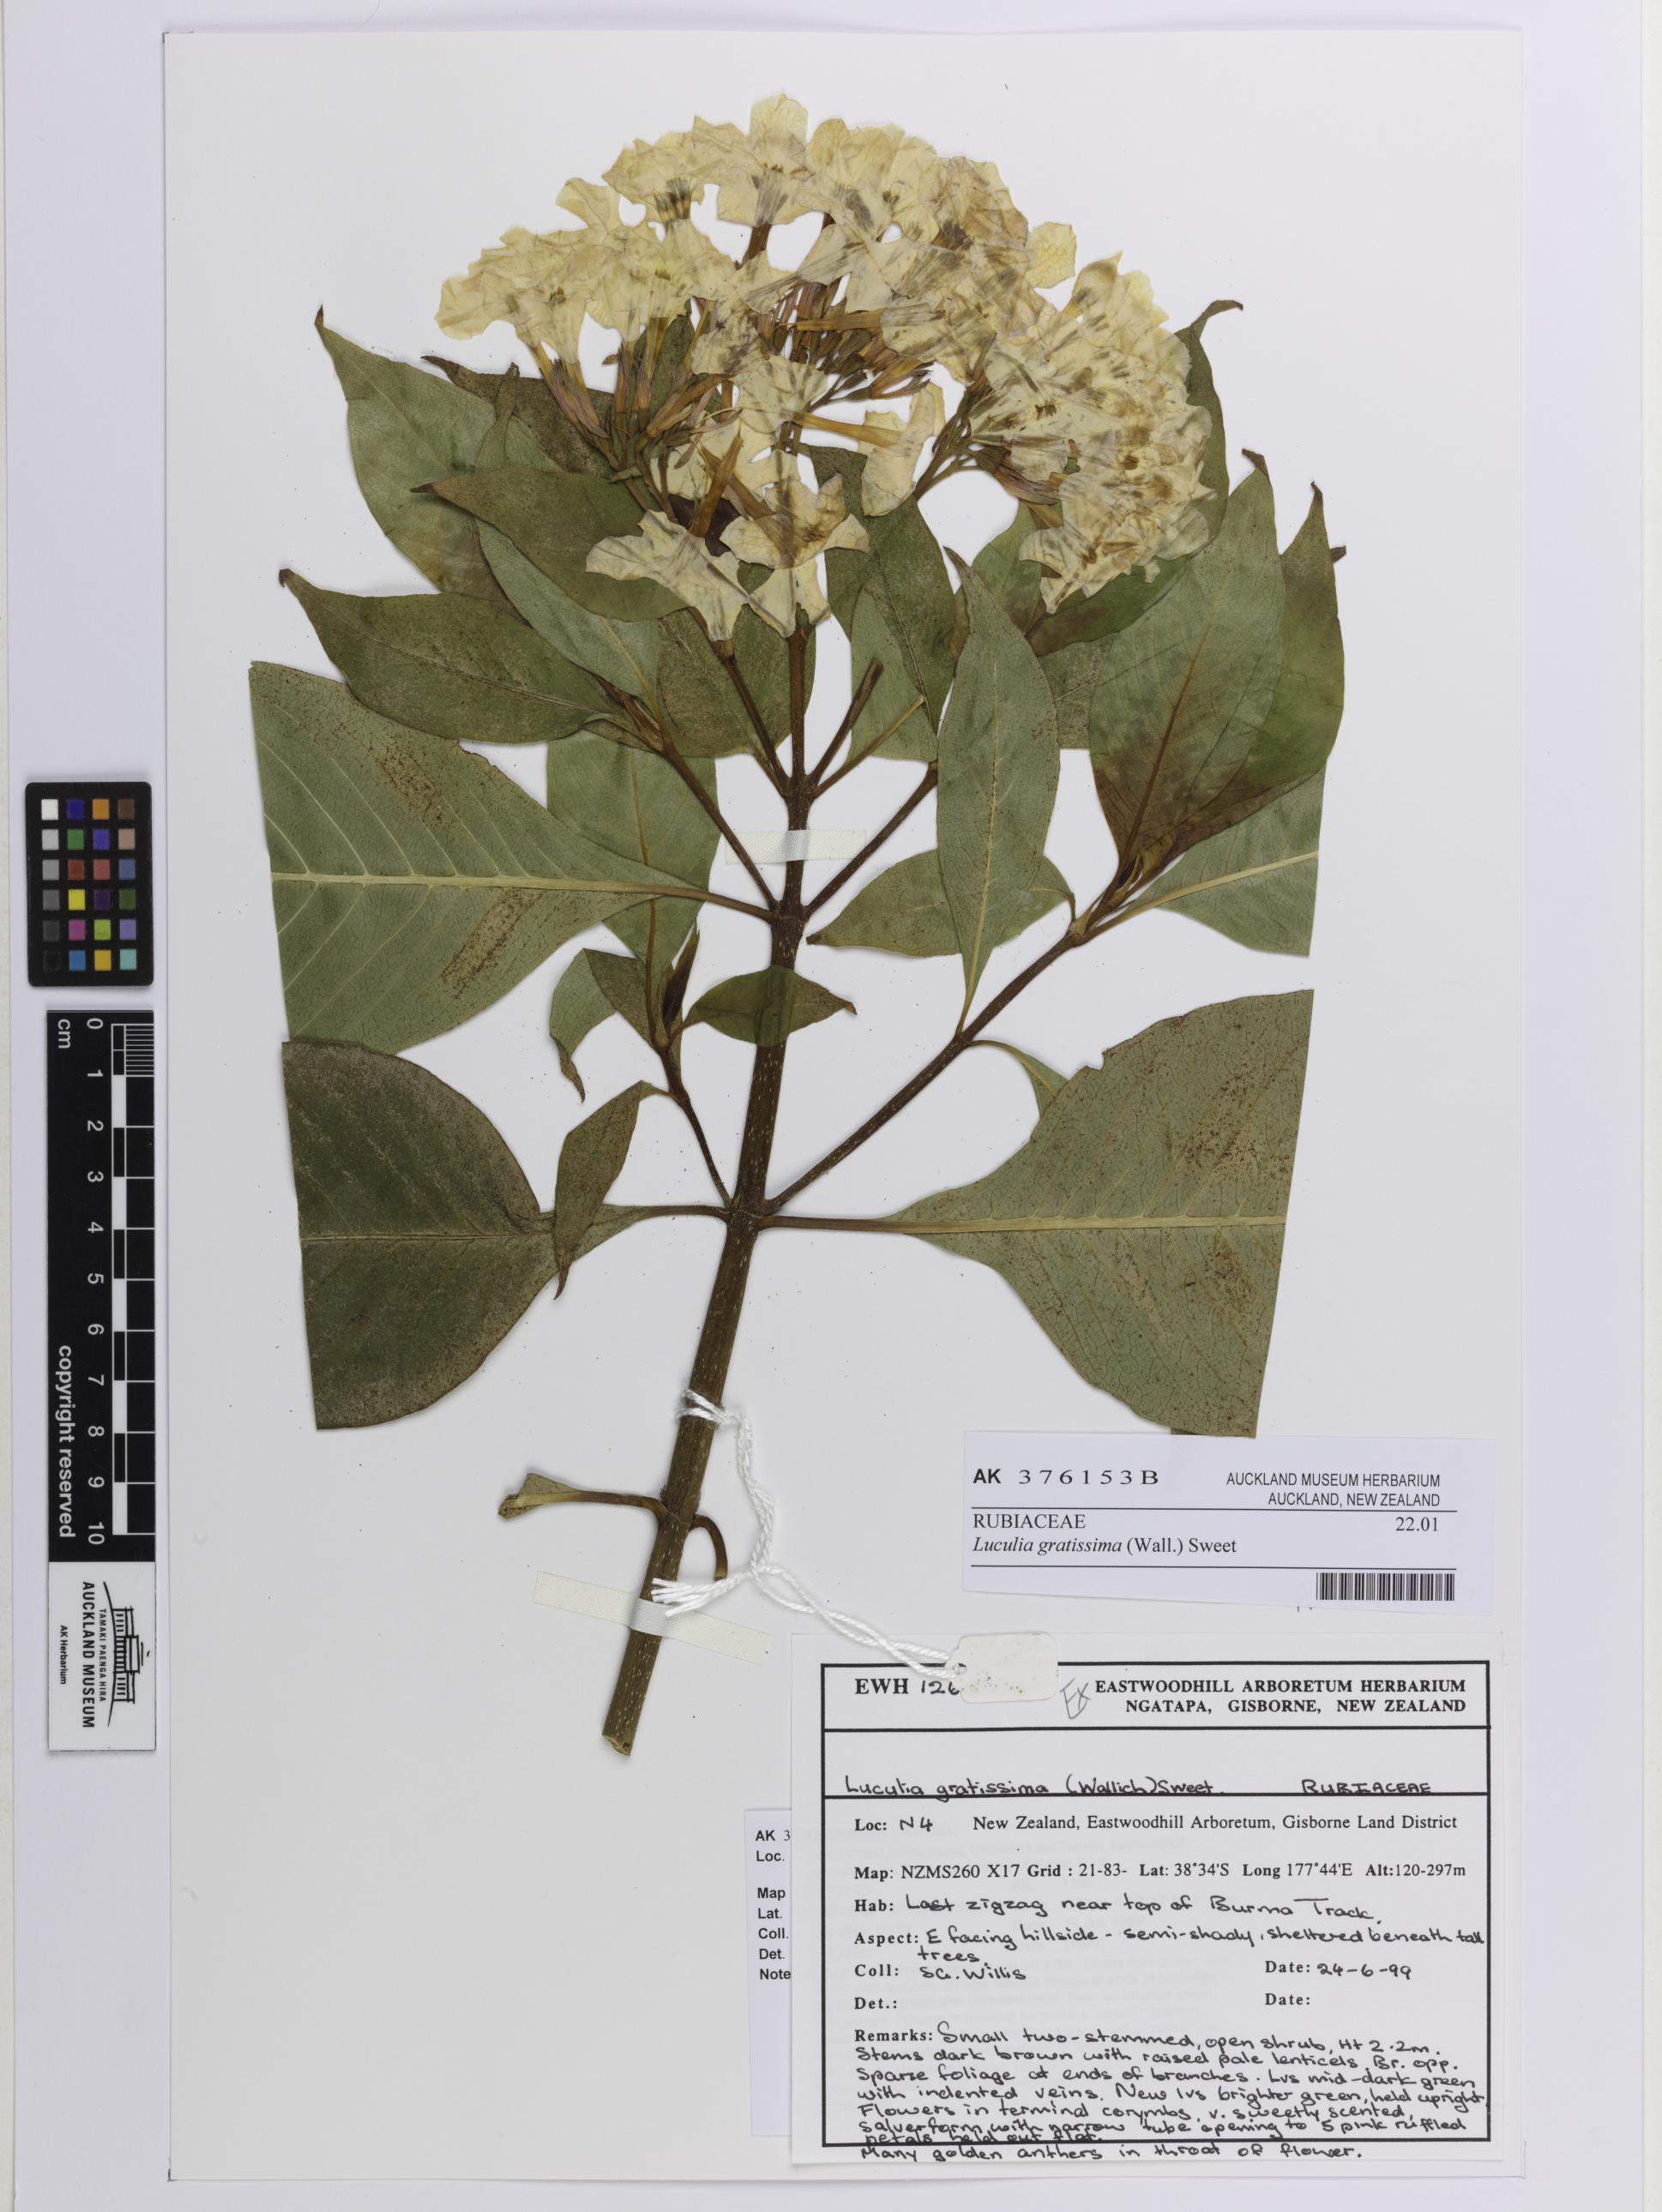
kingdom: Plantae
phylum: Tracheophyta
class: Magnoliopsida
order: Gentianales
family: Rubiaceae
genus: Luculia
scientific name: Luculia gratissima
